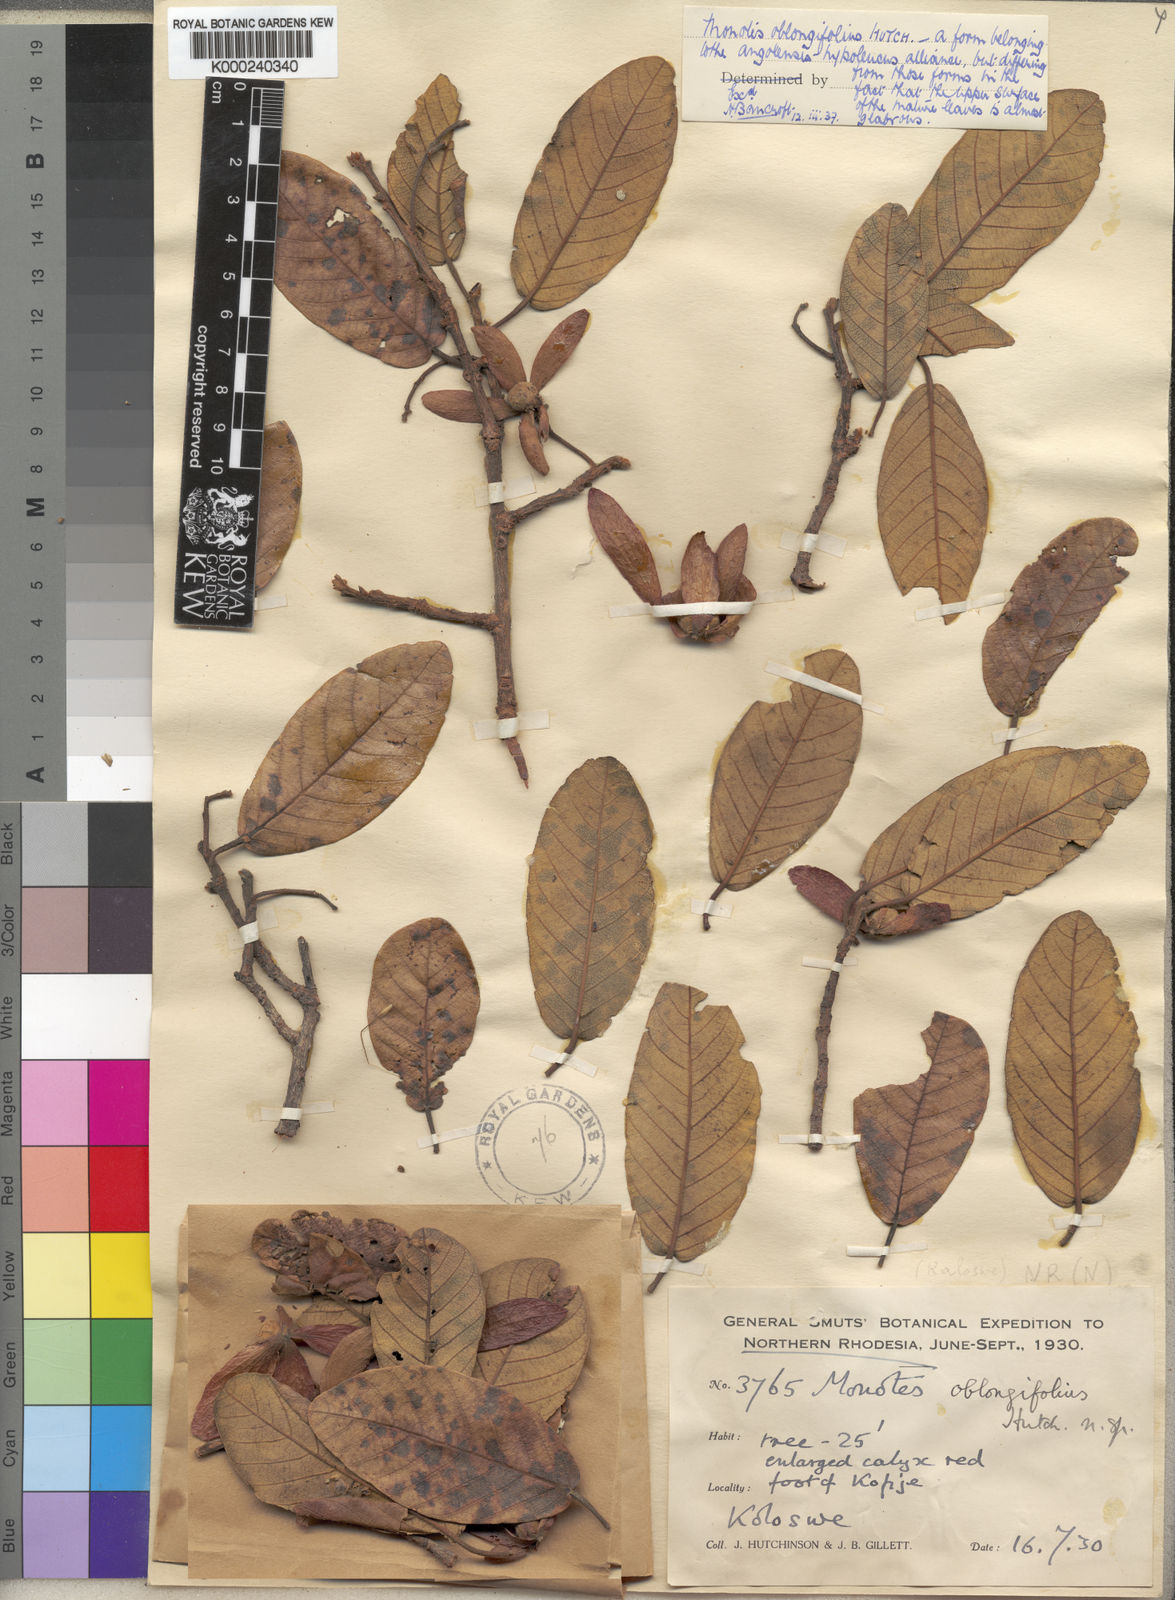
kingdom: Plantae
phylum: Tracheophyta
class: Magnoliopsida
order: Malvales
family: Dipterocarpaceae
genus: Monotes
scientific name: Monotes hypoleucus
